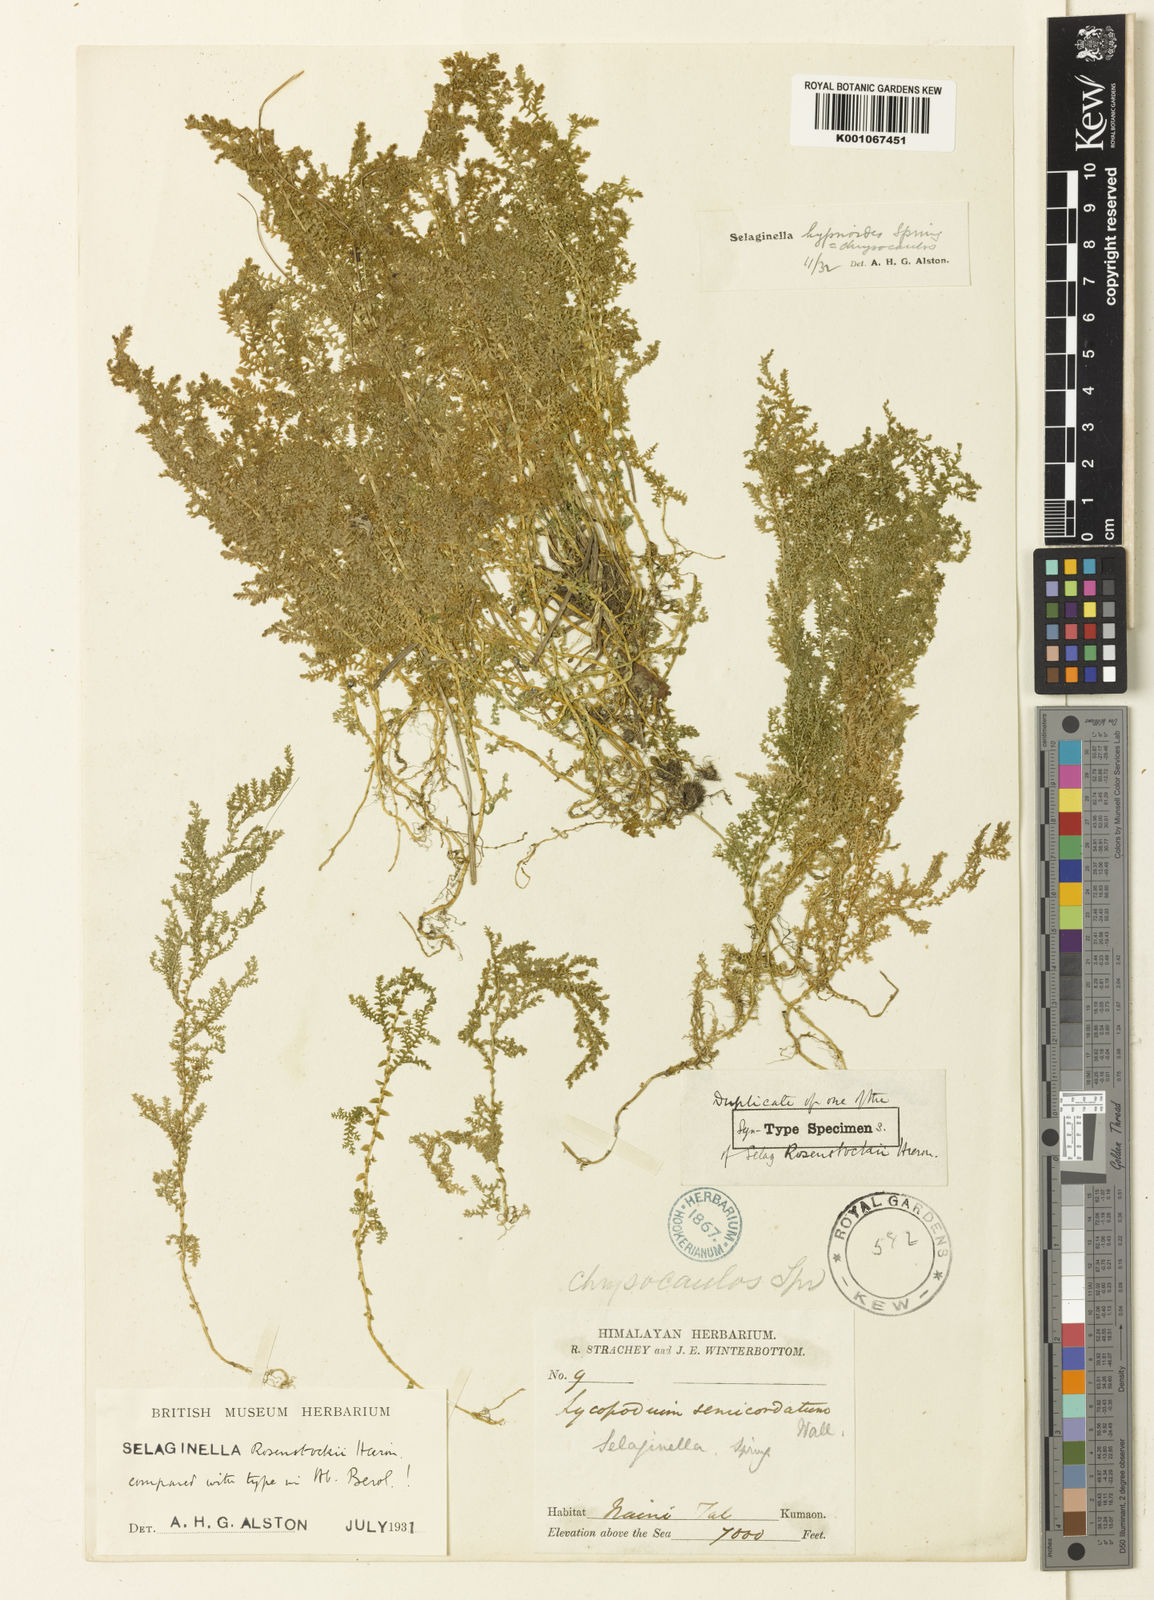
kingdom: Plantae
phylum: Tracheophyta
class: Lycopodiopsida
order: Selaginellales
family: Selaginellaceae
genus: Selaginella
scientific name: Selaginella chrysocaulos
